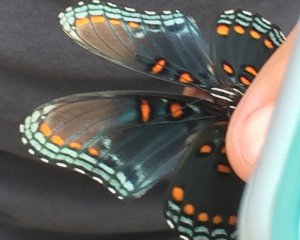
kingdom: Animalia
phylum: Arthropoda
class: Insecta
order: Lepidoptera
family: Nymphalidae
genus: Limenitis
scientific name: Limenitis astyanax
